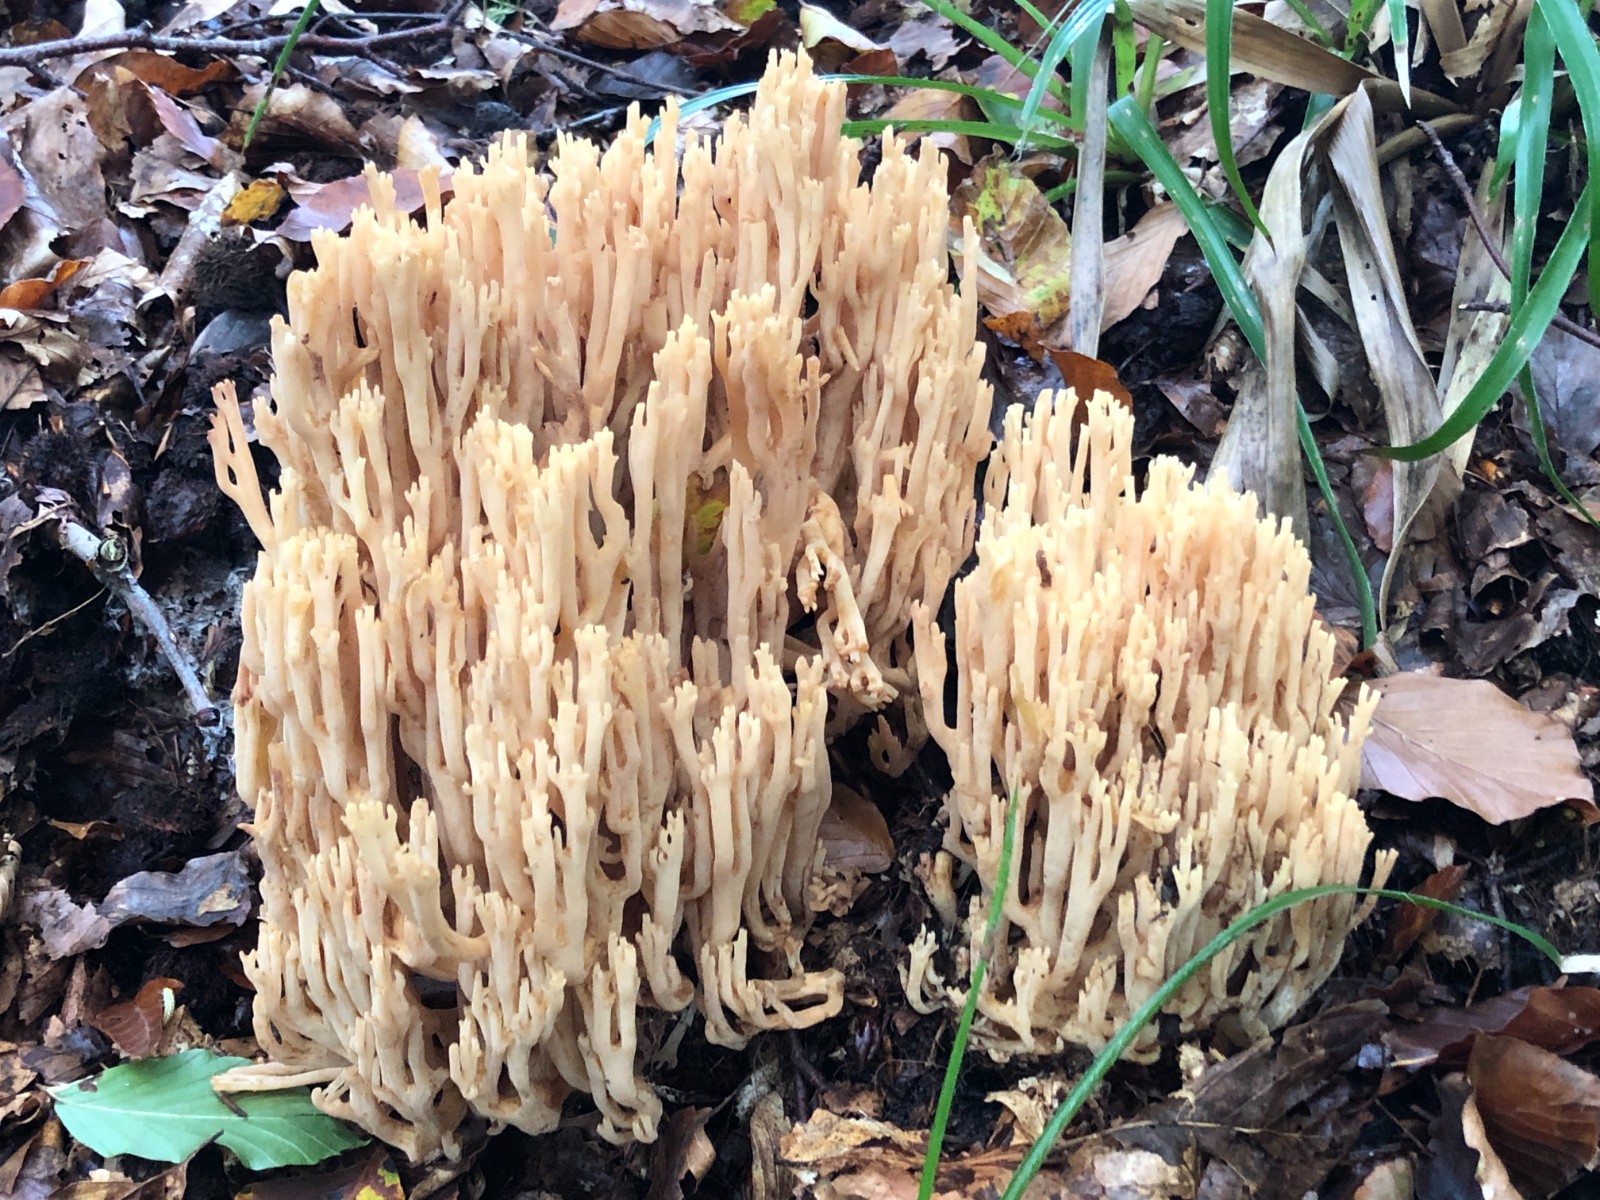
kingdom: Fungi
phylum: Basidiomycota
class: Agaricomycetes
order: Gomphales
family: Gomphaceae
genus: Ramaria
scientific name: Ramaria flavescens
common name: stor koralsvamp
